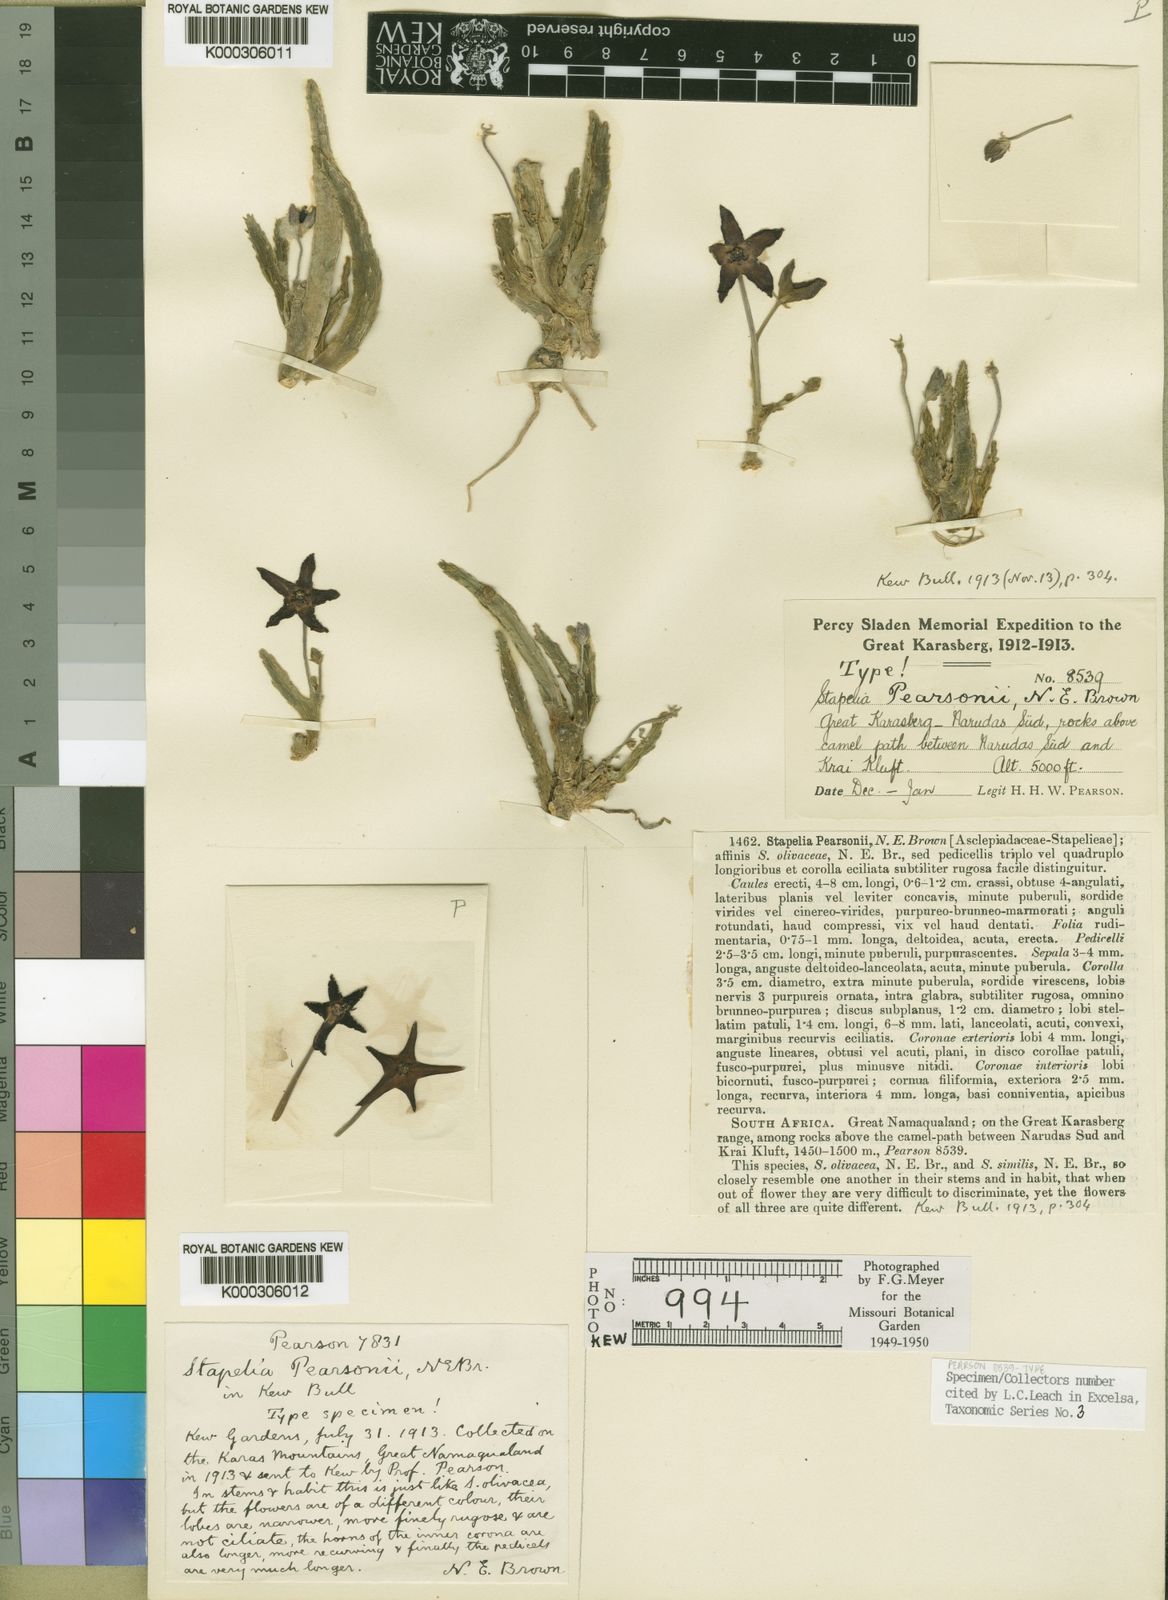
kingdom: Plantae
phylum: Tracheophyta
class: Magnoliopsida
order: Gentianales
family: Apocynaceae
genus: Ceropegia
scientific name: Ceropegia pearsonii
